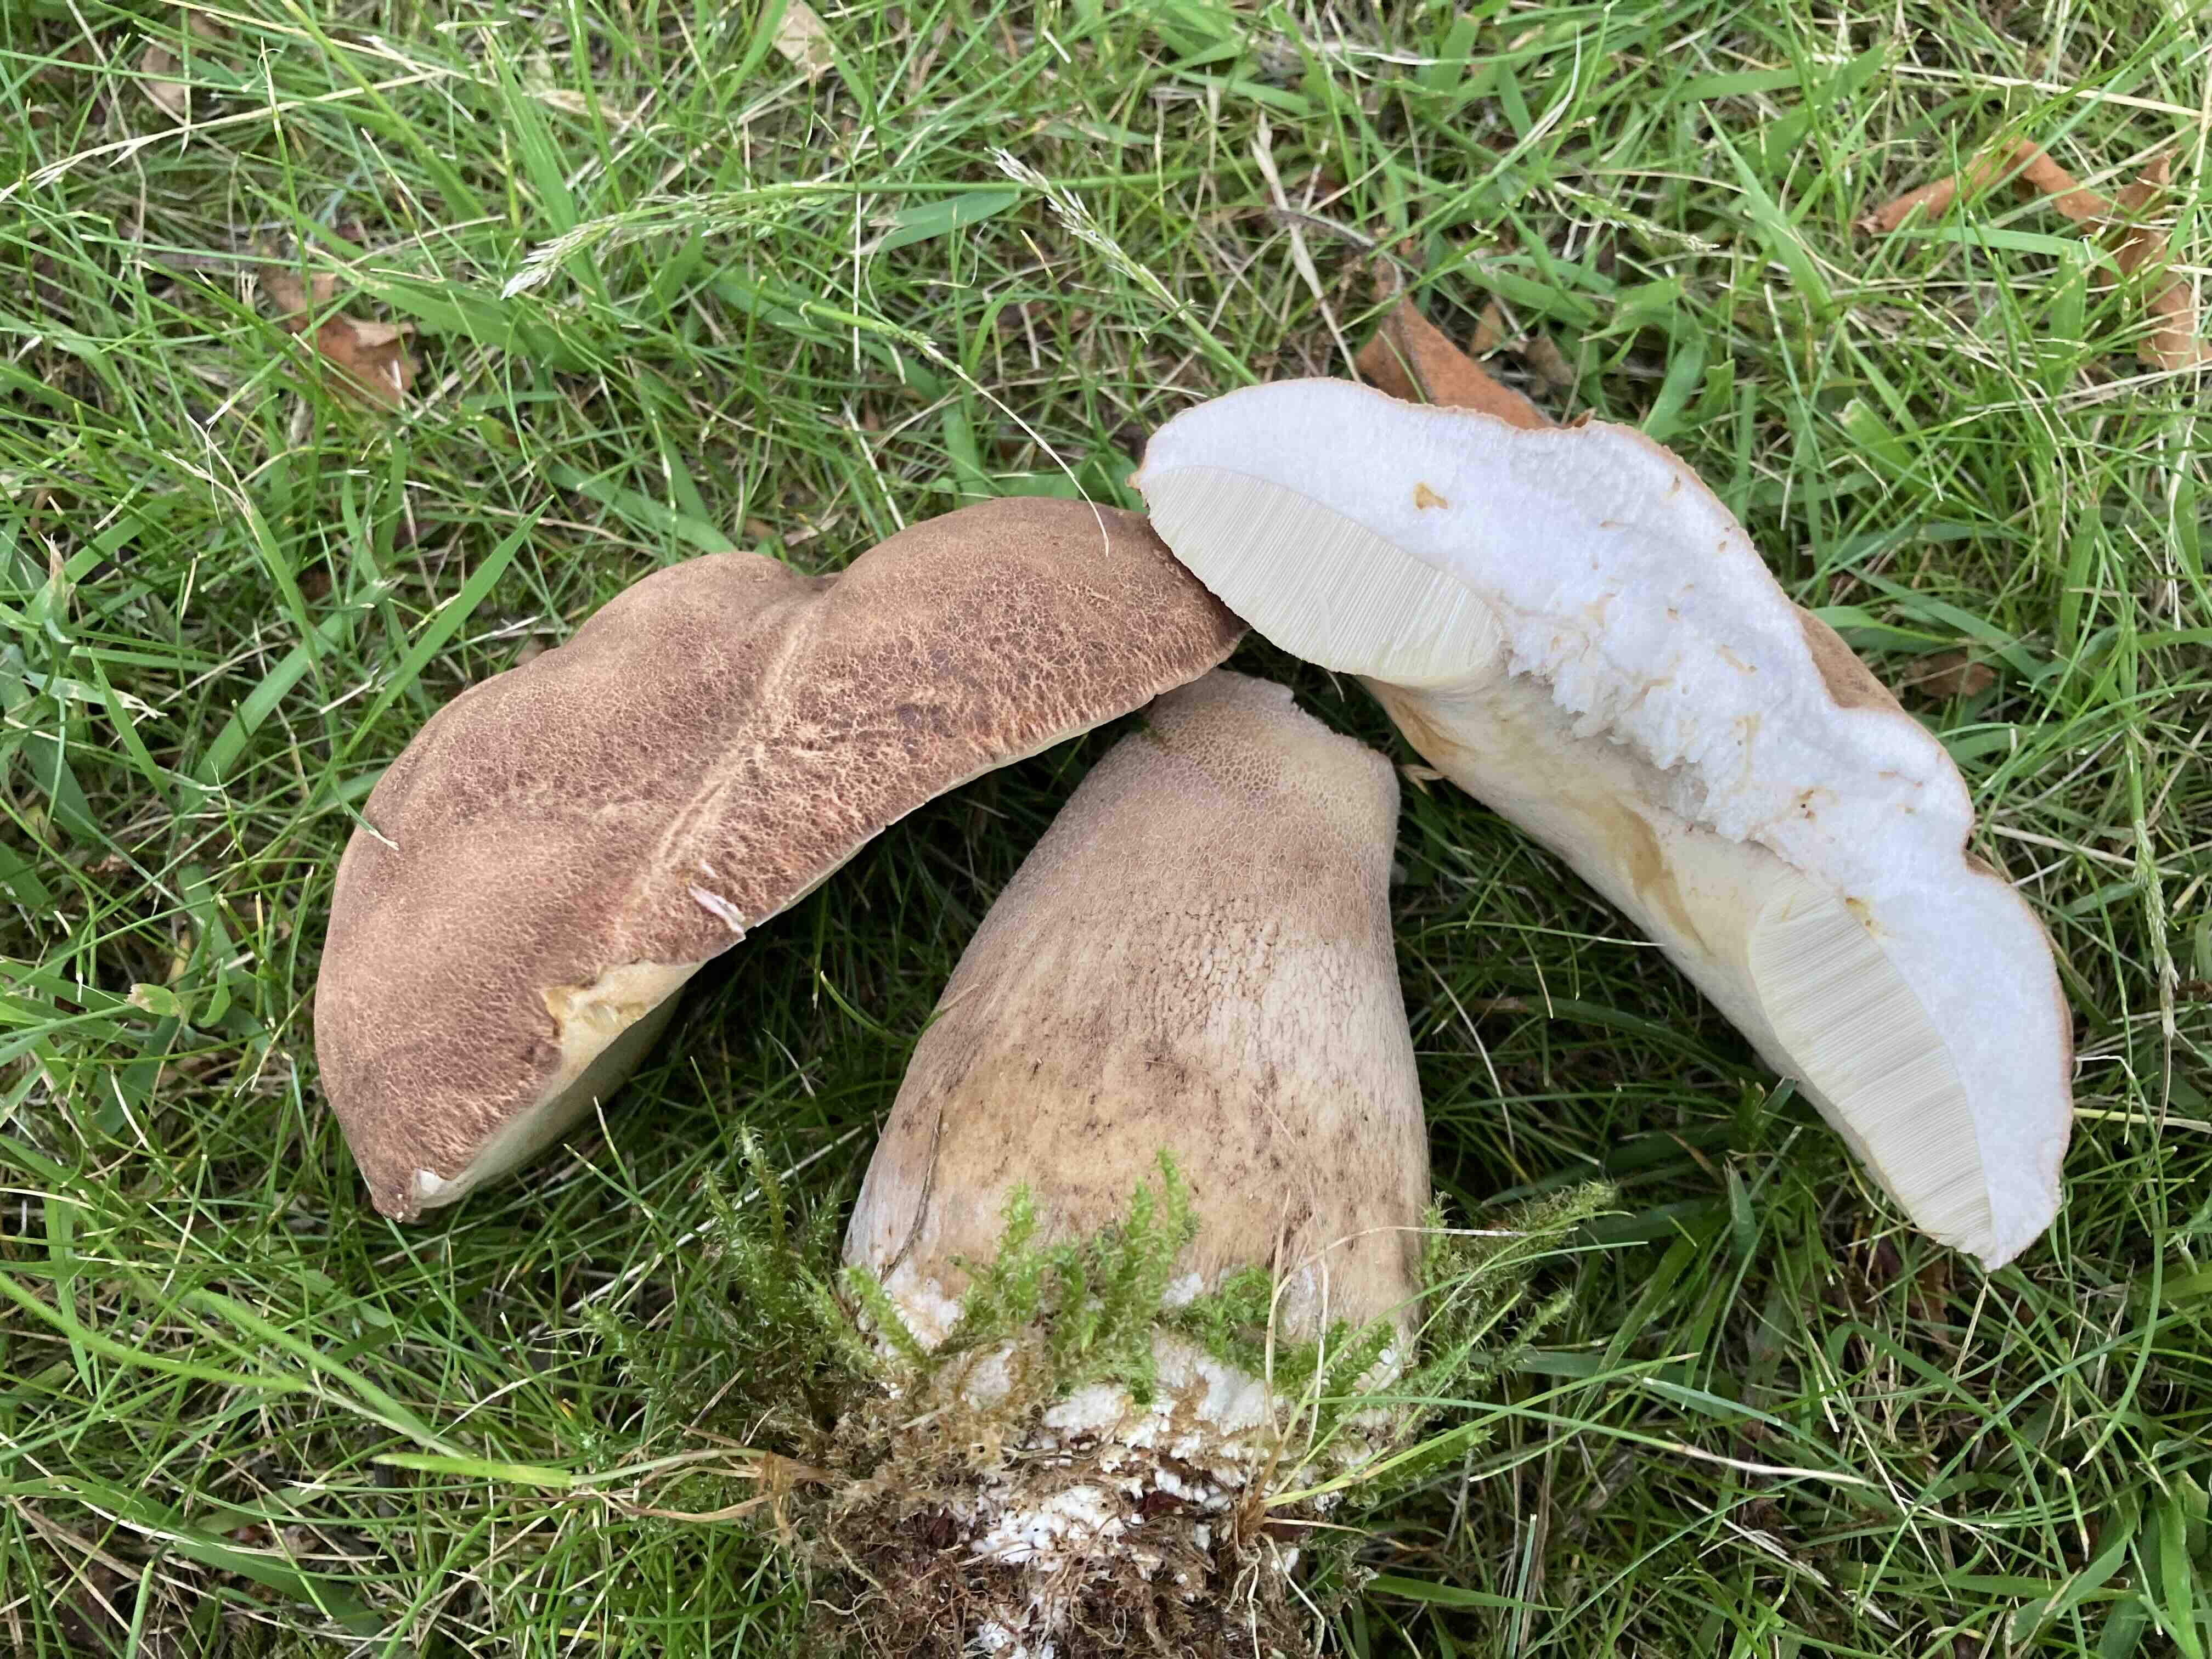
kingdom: Fungi
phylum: Basidiomycota
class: Agaricomycetes
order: Boletales
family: Boletaceae
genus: Boletus
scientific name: Boletus reticulatus
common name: sommer-rørhat
